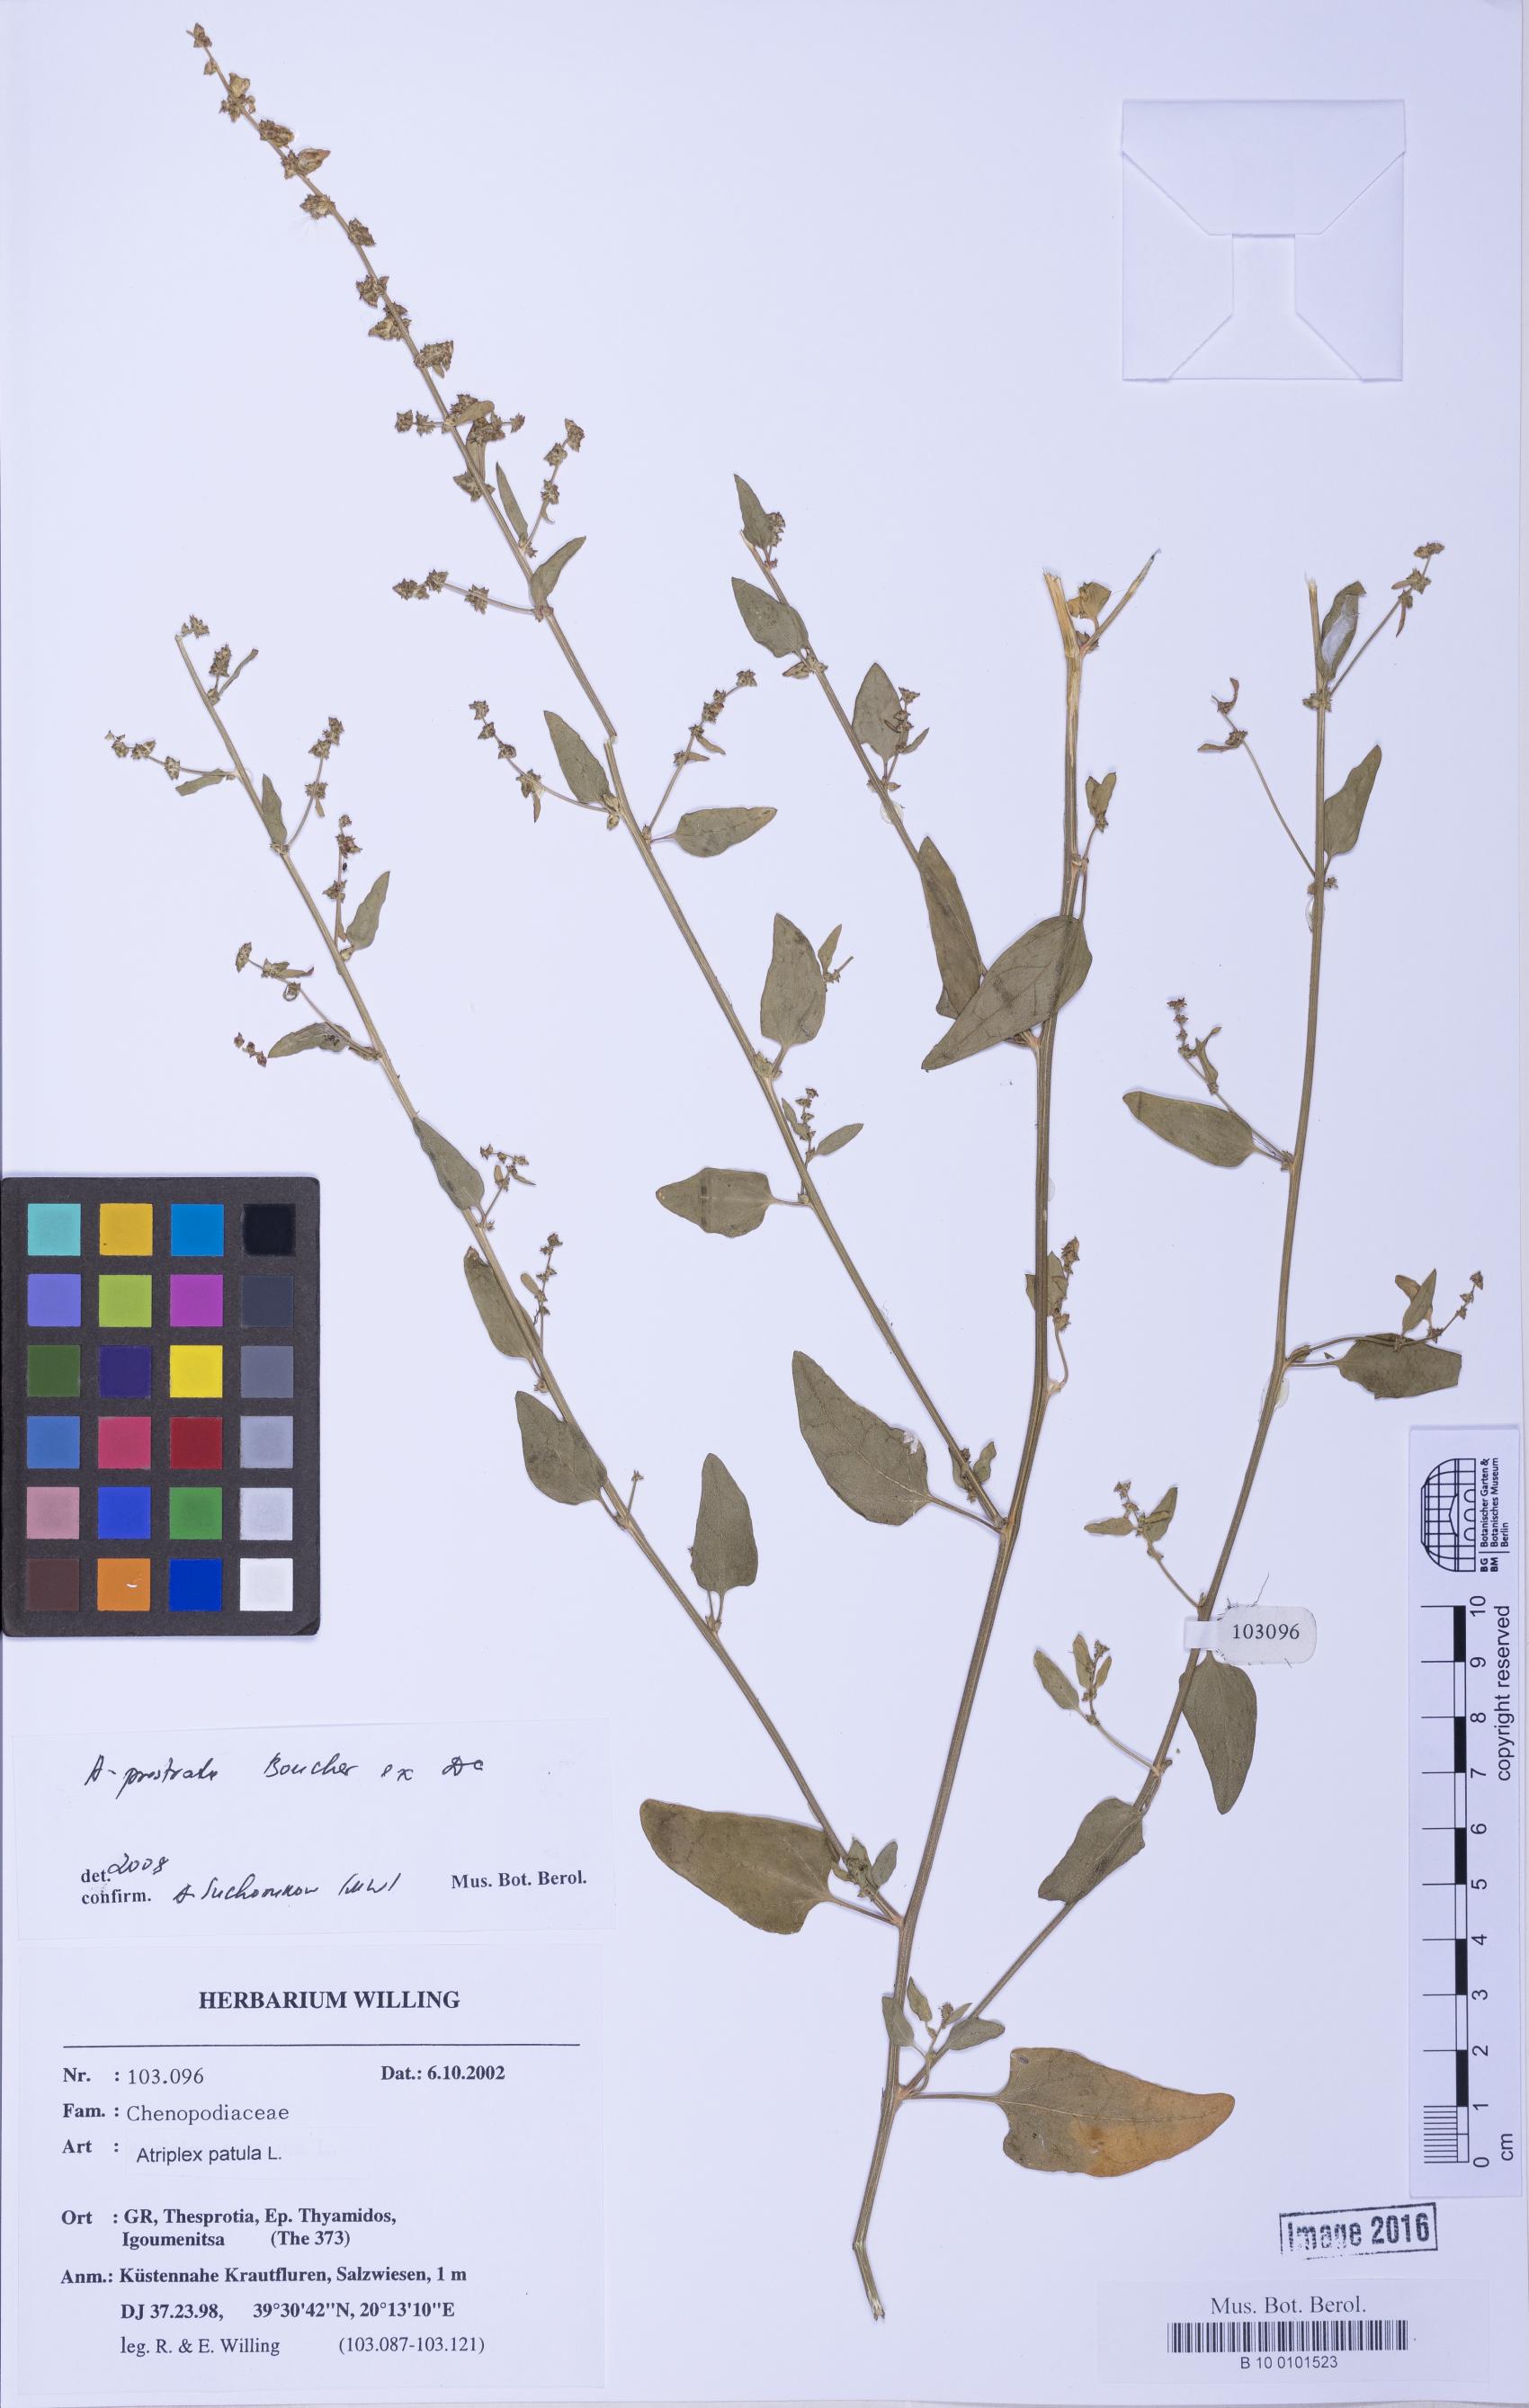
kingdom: Plantae
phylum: Tracheophyta
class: Magnoliopsida
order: Caryophyllales
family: Amaranthaceae
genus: Atriplex
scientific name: Atriplex prostrata
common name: Spear-leaved orache
